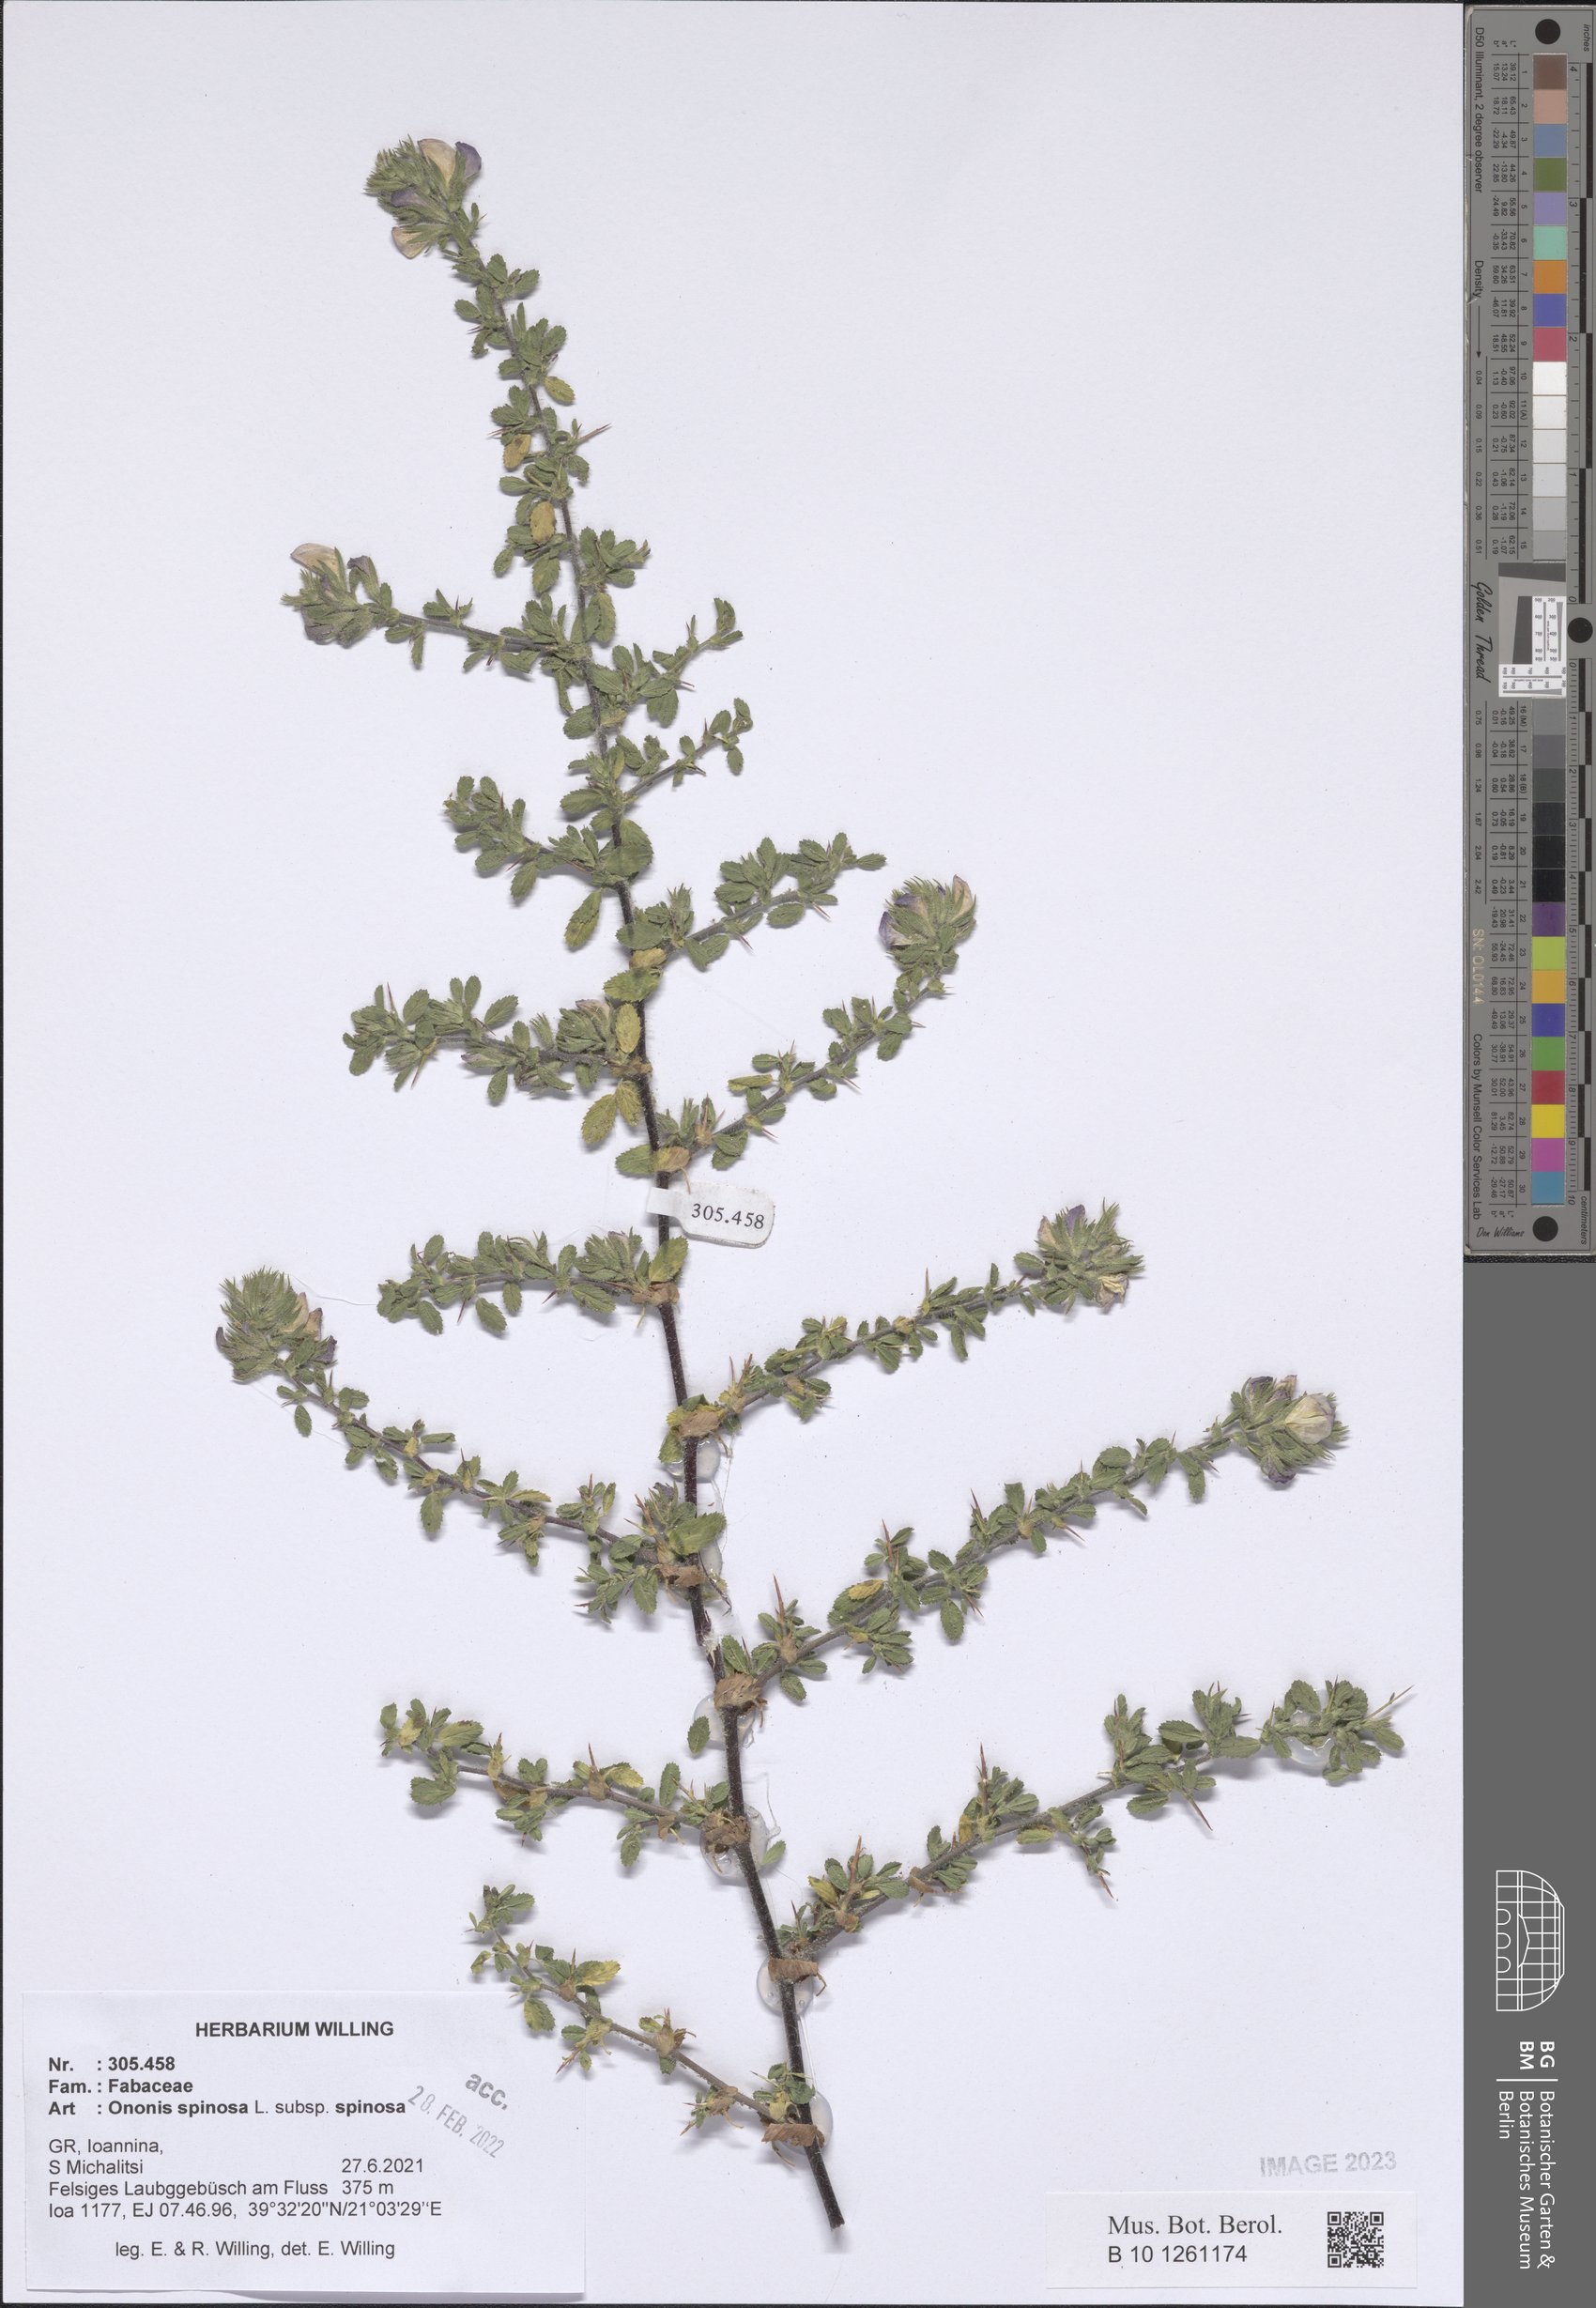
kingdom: Plantae
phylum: Tracheophyta
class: Magnoliopsida
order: Fabales
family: Fabaceae
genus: Ononis
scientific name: Ononis spinosa
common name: Spiny restharrow
